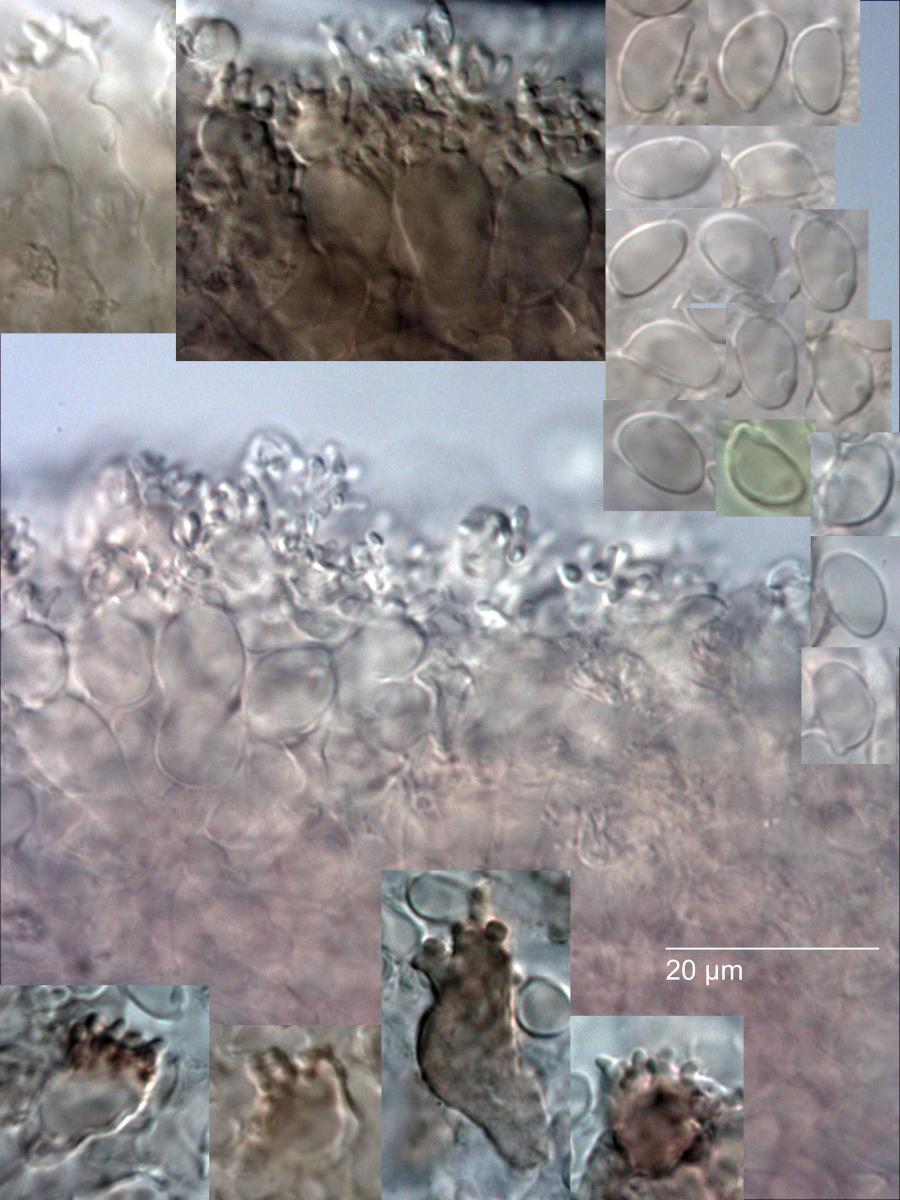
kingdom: Fungi
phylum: Basidiomycota
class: Agaricomycetes
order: Agaricales
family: Marasmiaceae
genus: Marasmius
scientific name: Marasmius tenuissimus
